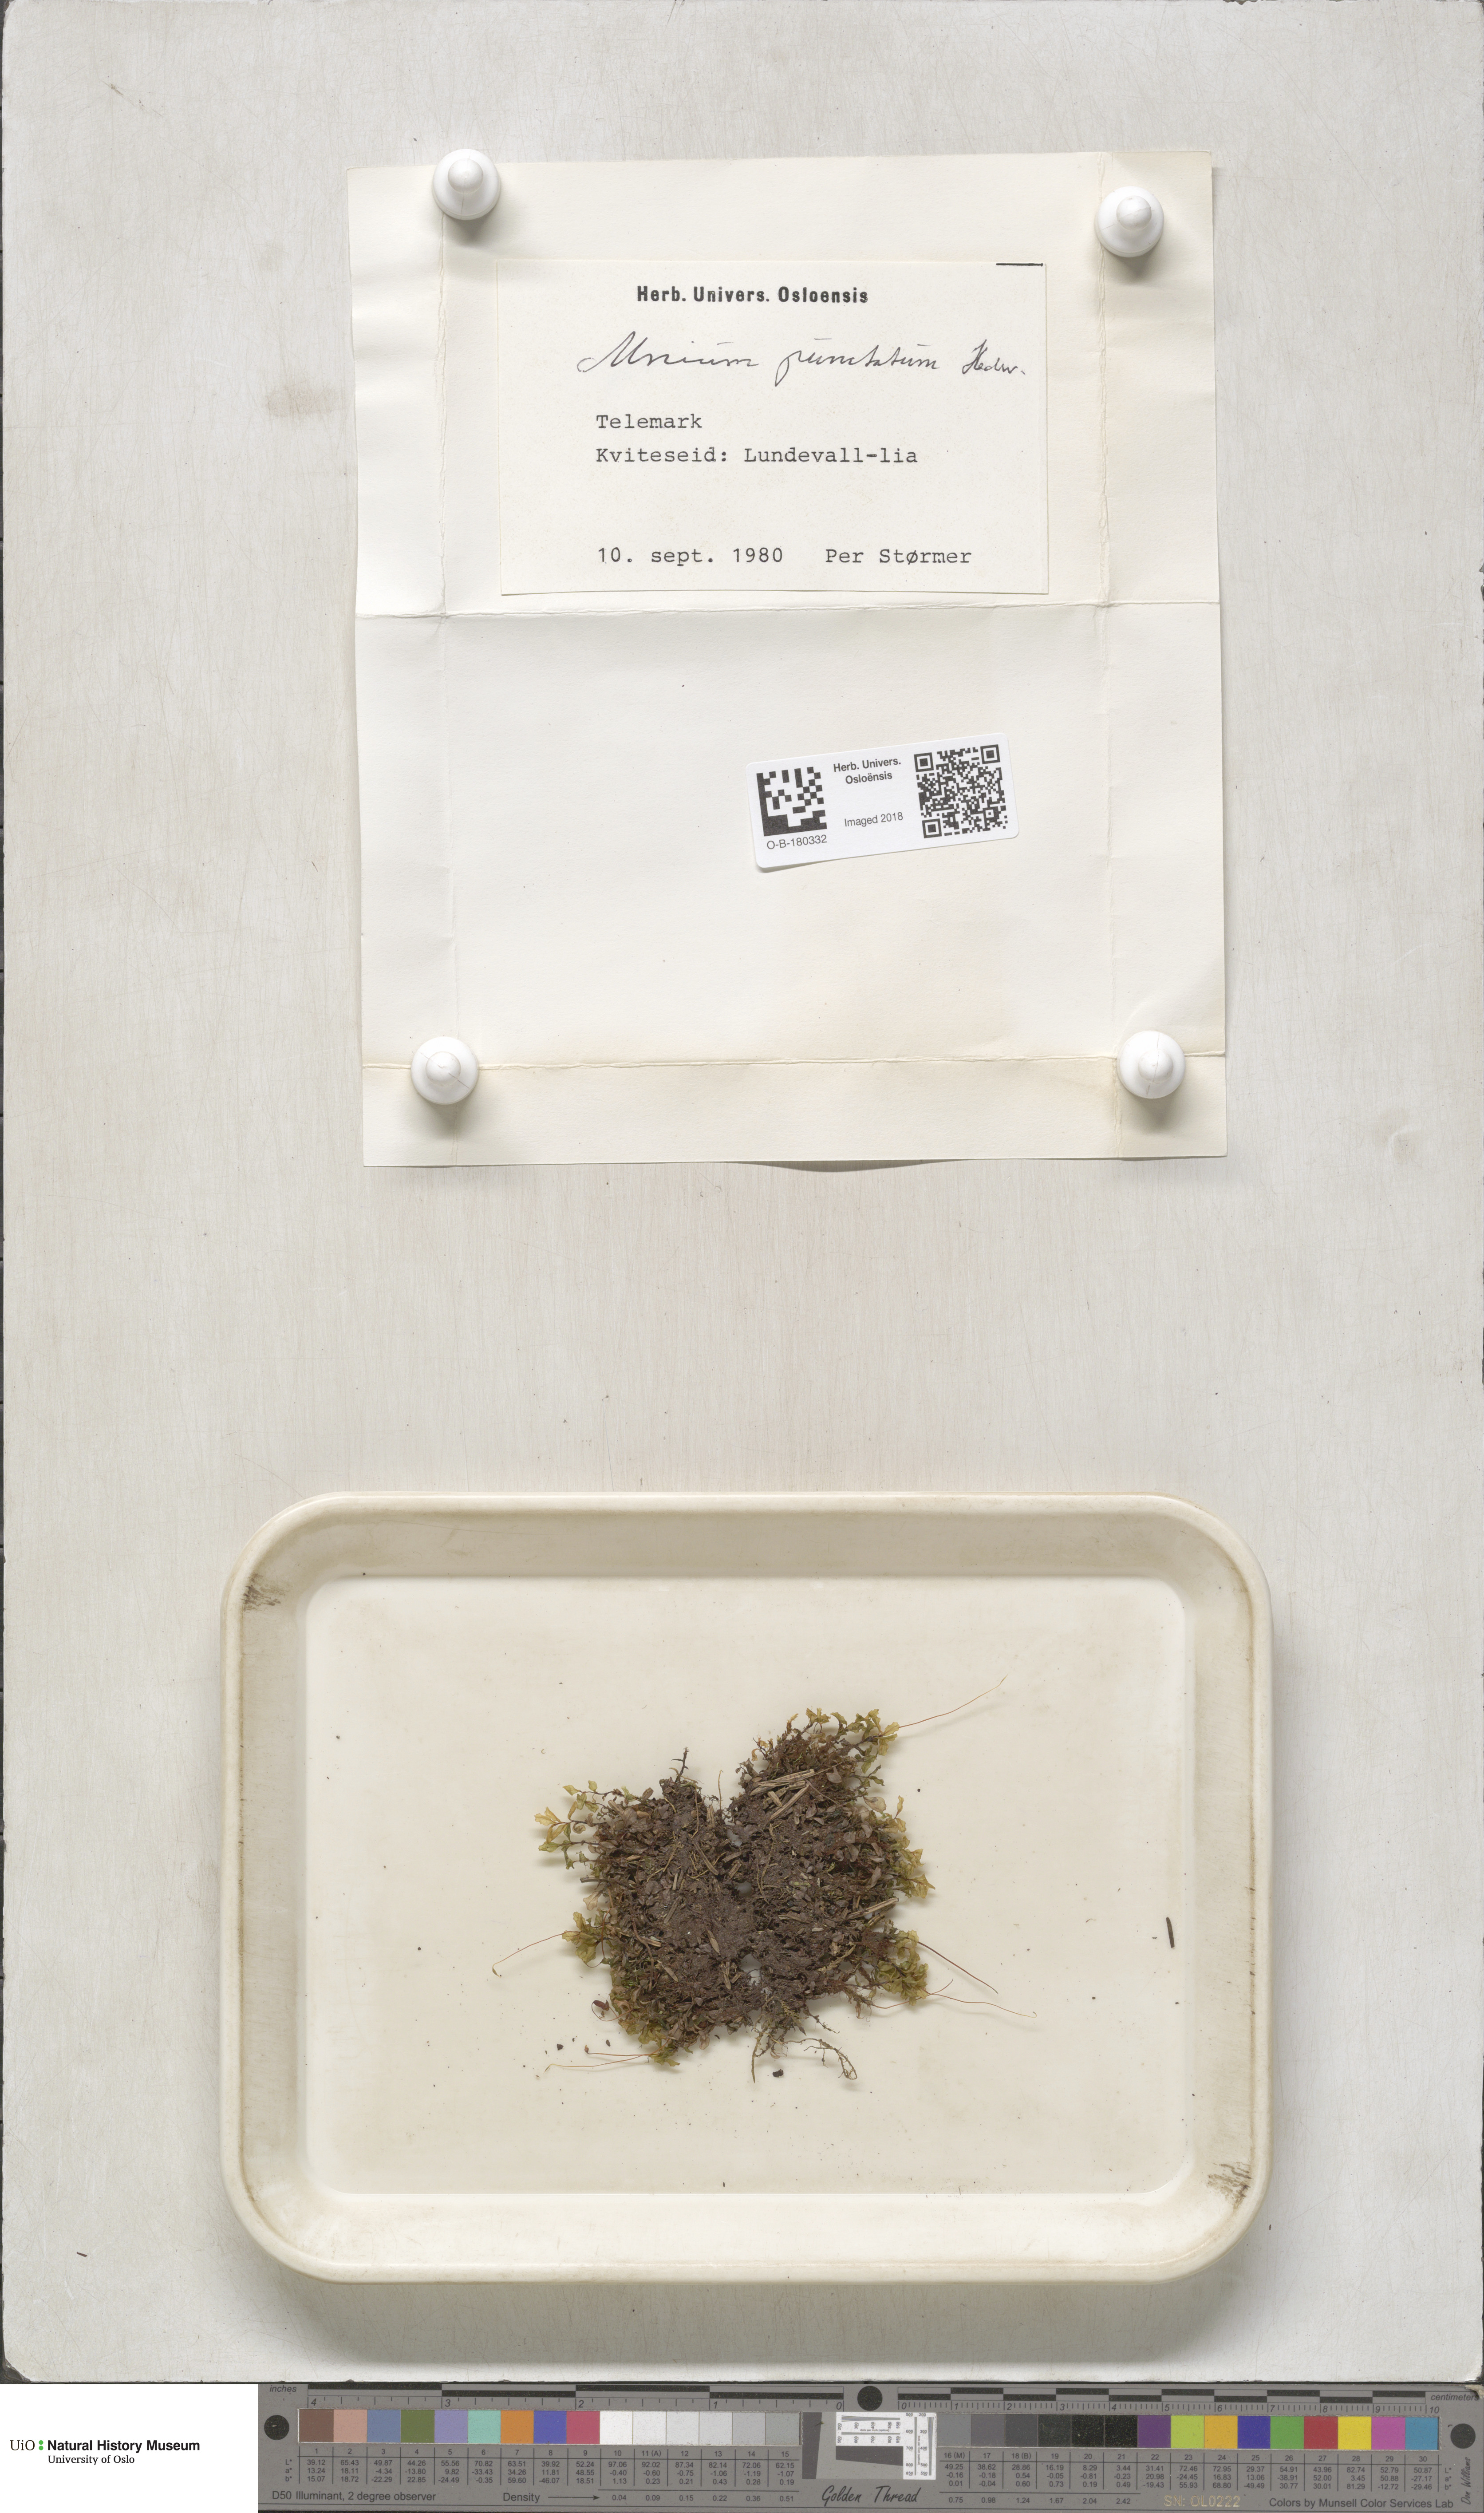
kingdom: Plantae
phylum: Bryophyta
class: Bryopsida
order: Bryales
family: Mniaceae
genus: Rhizomnium
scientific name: Rhizomnium punctatum
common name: Dotted leafy moss
